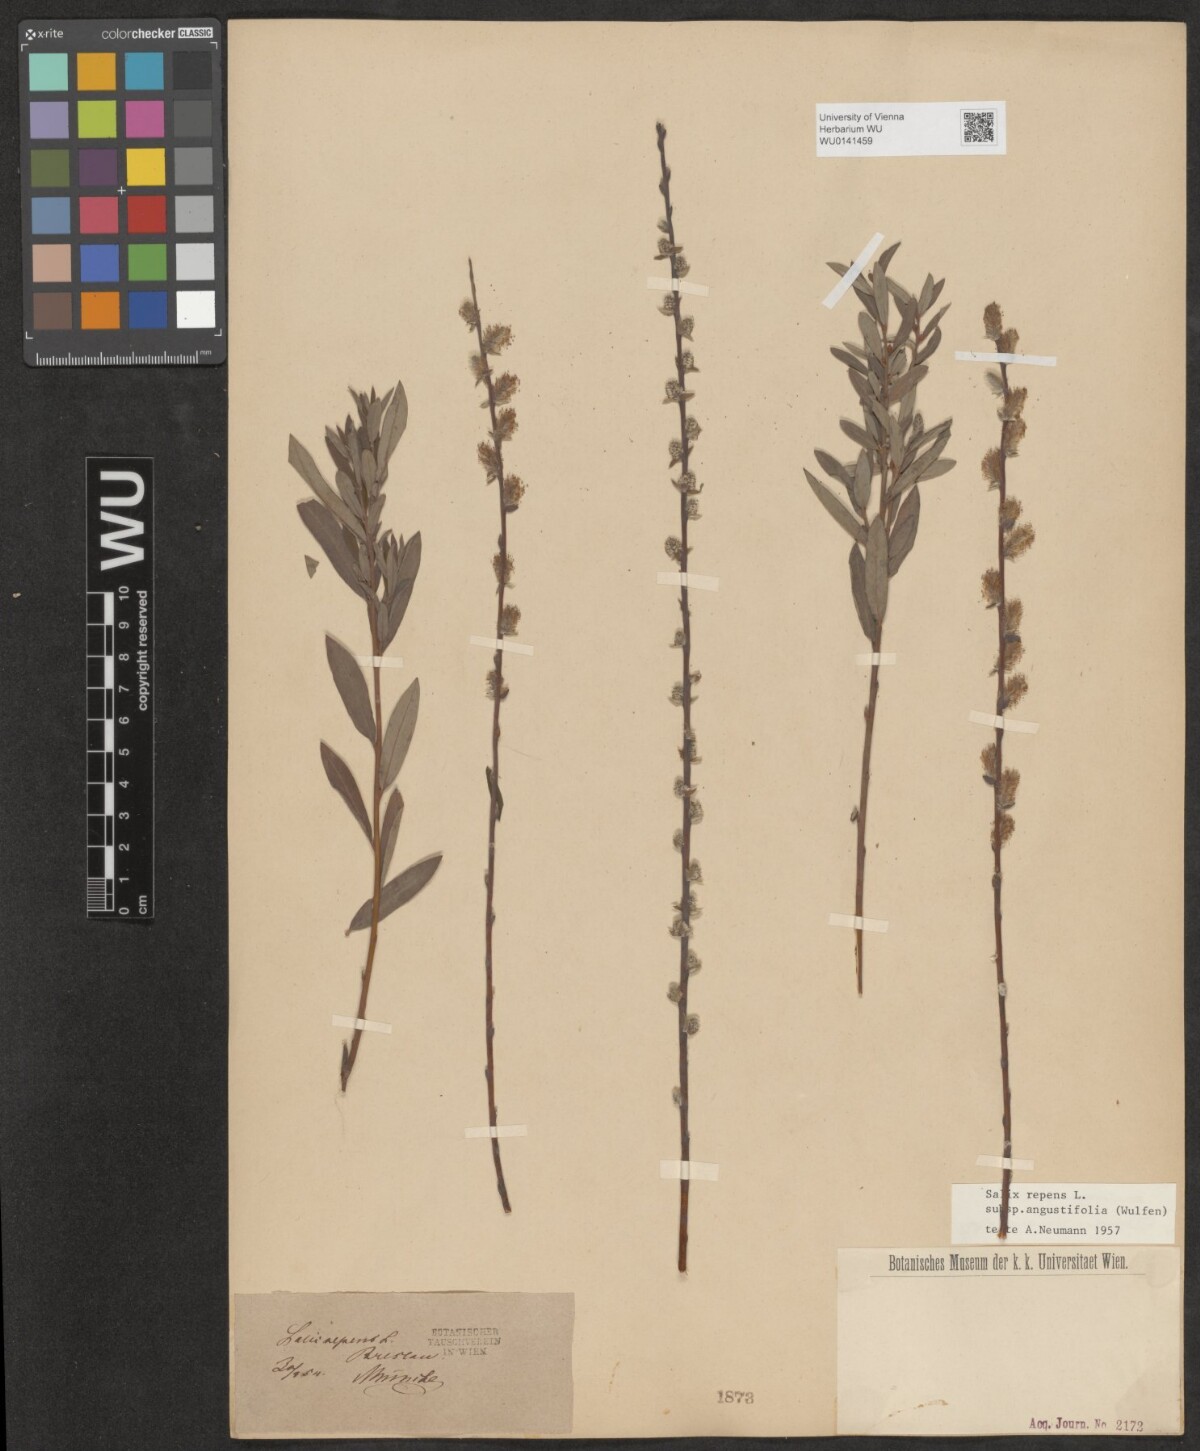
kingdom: Plantae
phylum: Tracheophyta
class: Magnoliopsida
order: Malpighiales
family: Salicaceae
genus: Salix
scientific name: Salix rosmarinifolia
